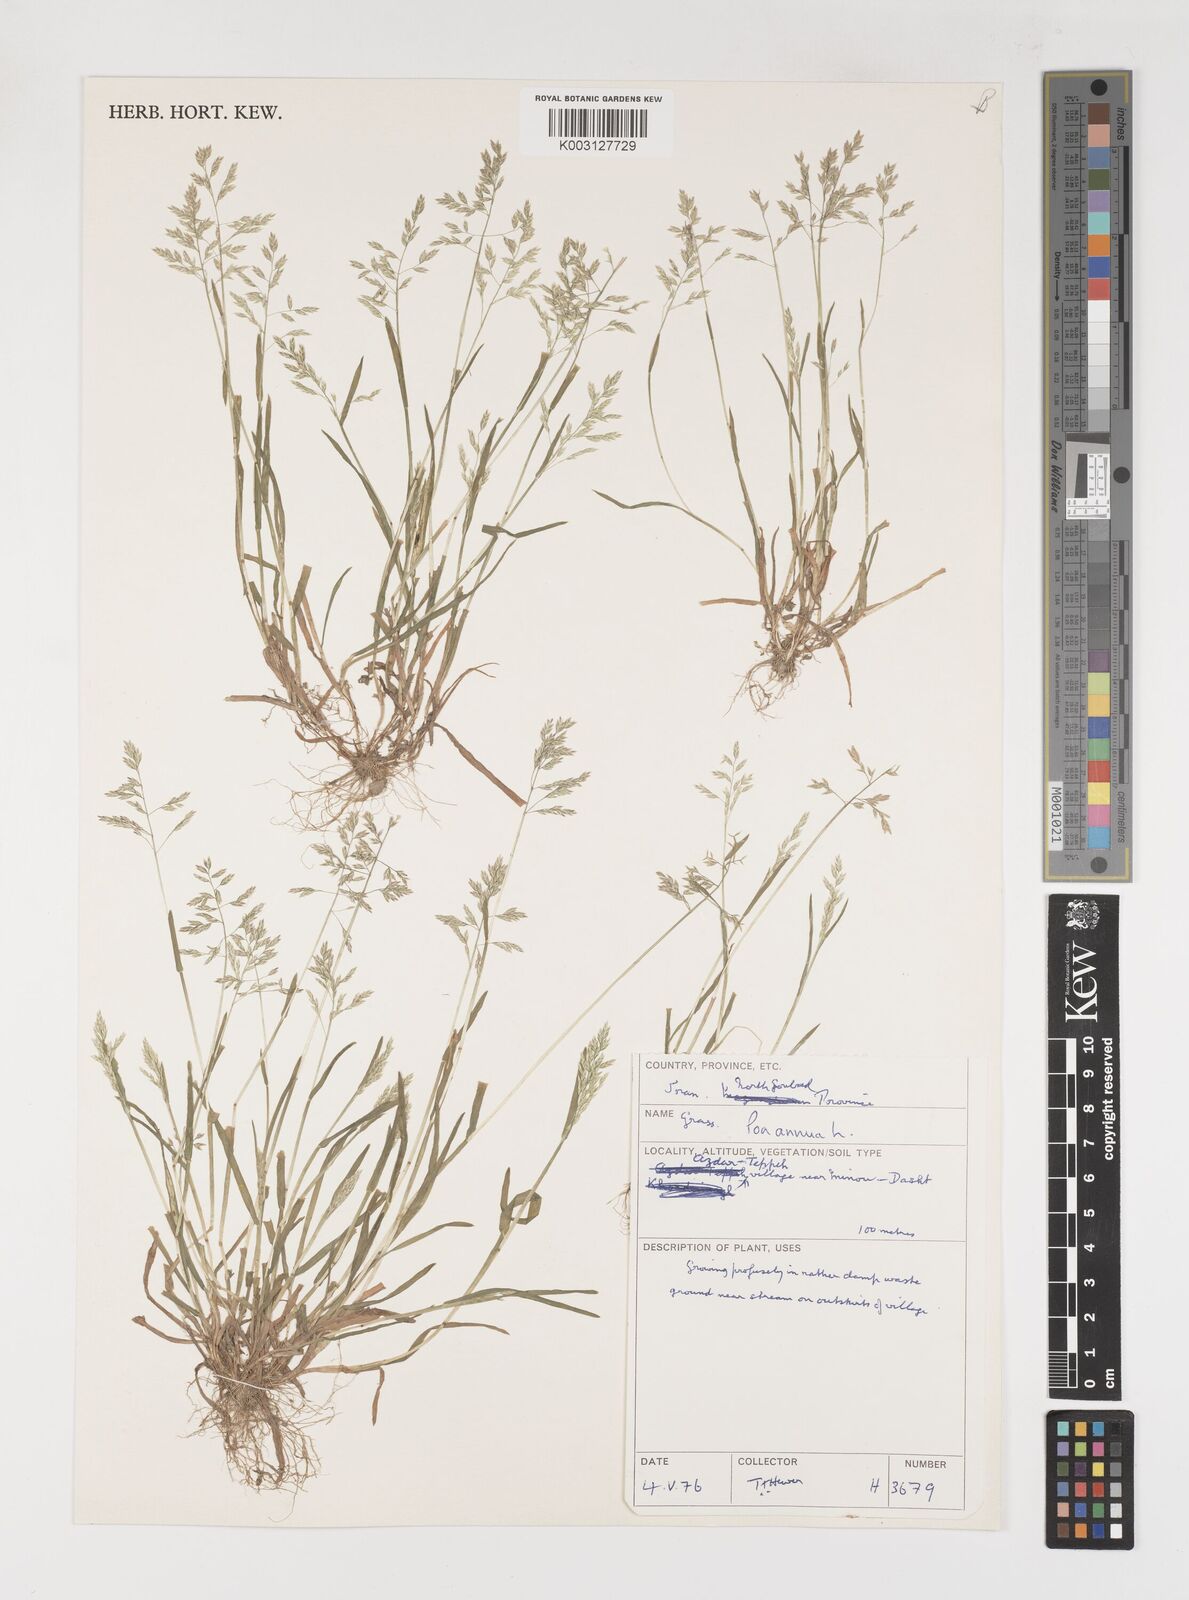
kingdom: Plantae
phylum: Tracheophyta
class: Liliopsida
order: Poales
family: Poaceae
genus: Poa
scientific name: Poa annua
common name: Annual bluegrass
